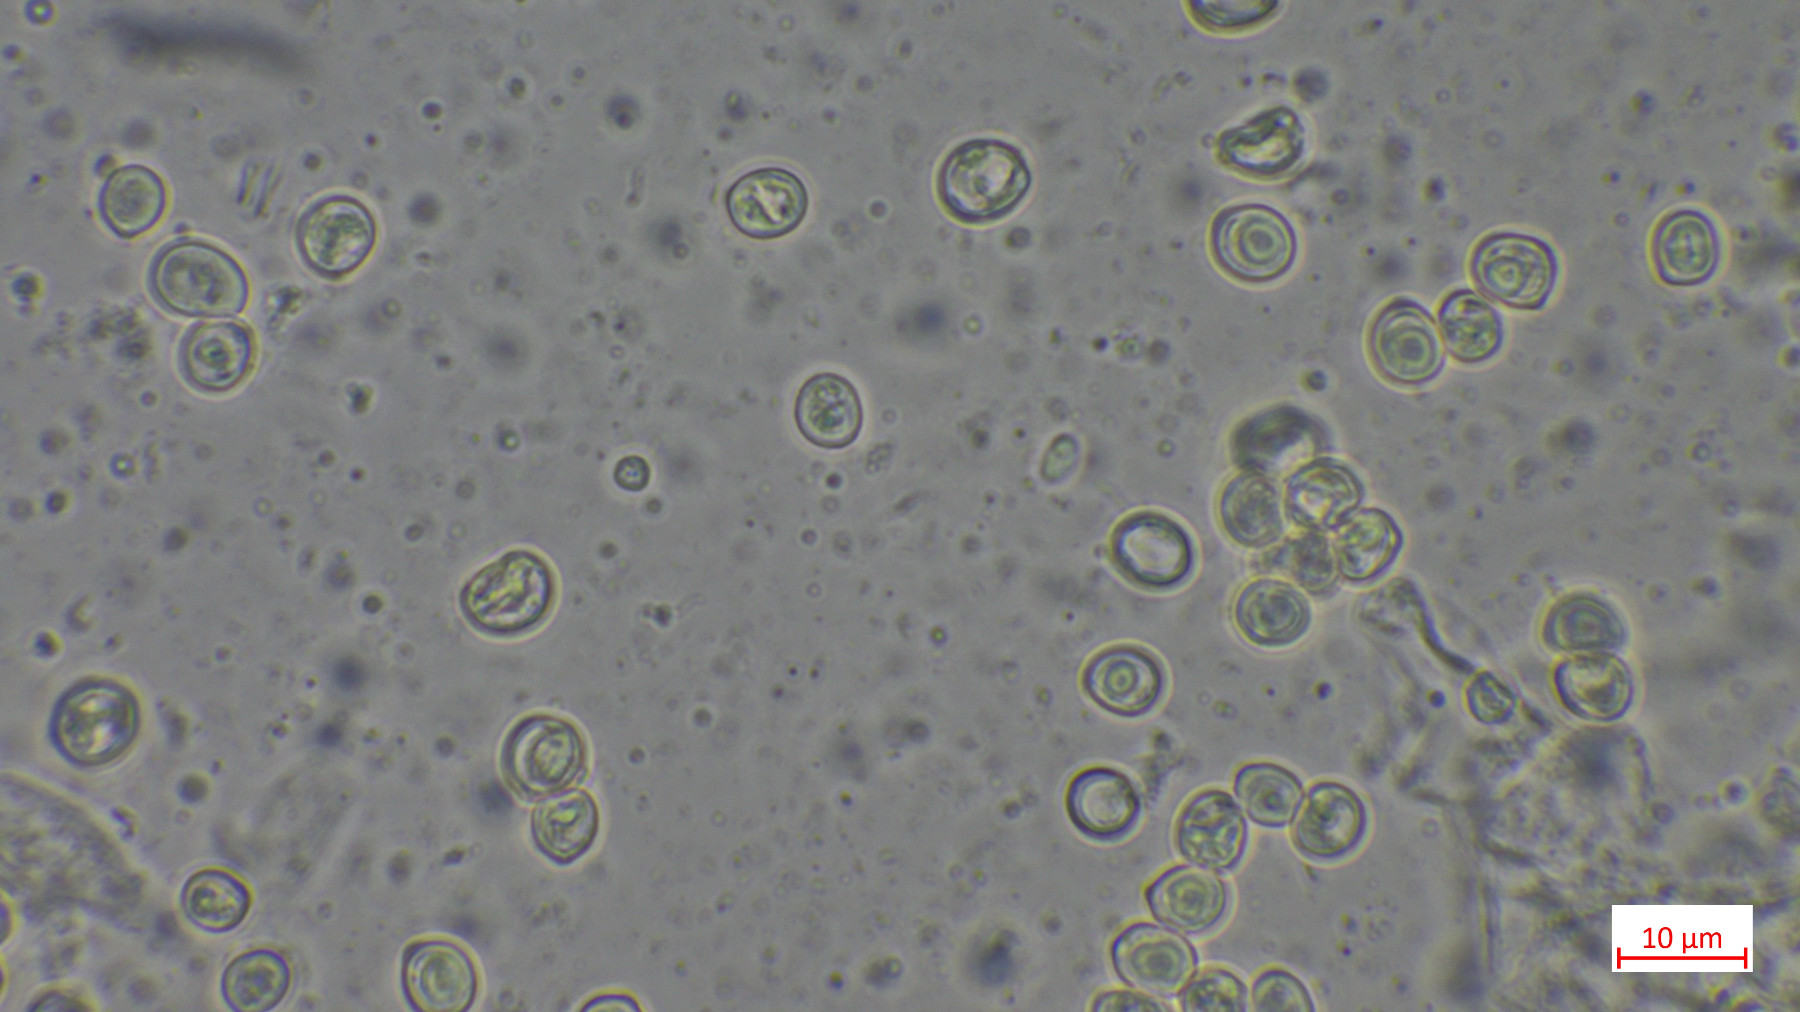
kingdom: Fungi
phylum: Basidiomycota
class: Agaricomycetes
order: Agaricales
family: Pluteaceae
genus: Pluteus
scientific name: Pluteus plautus
